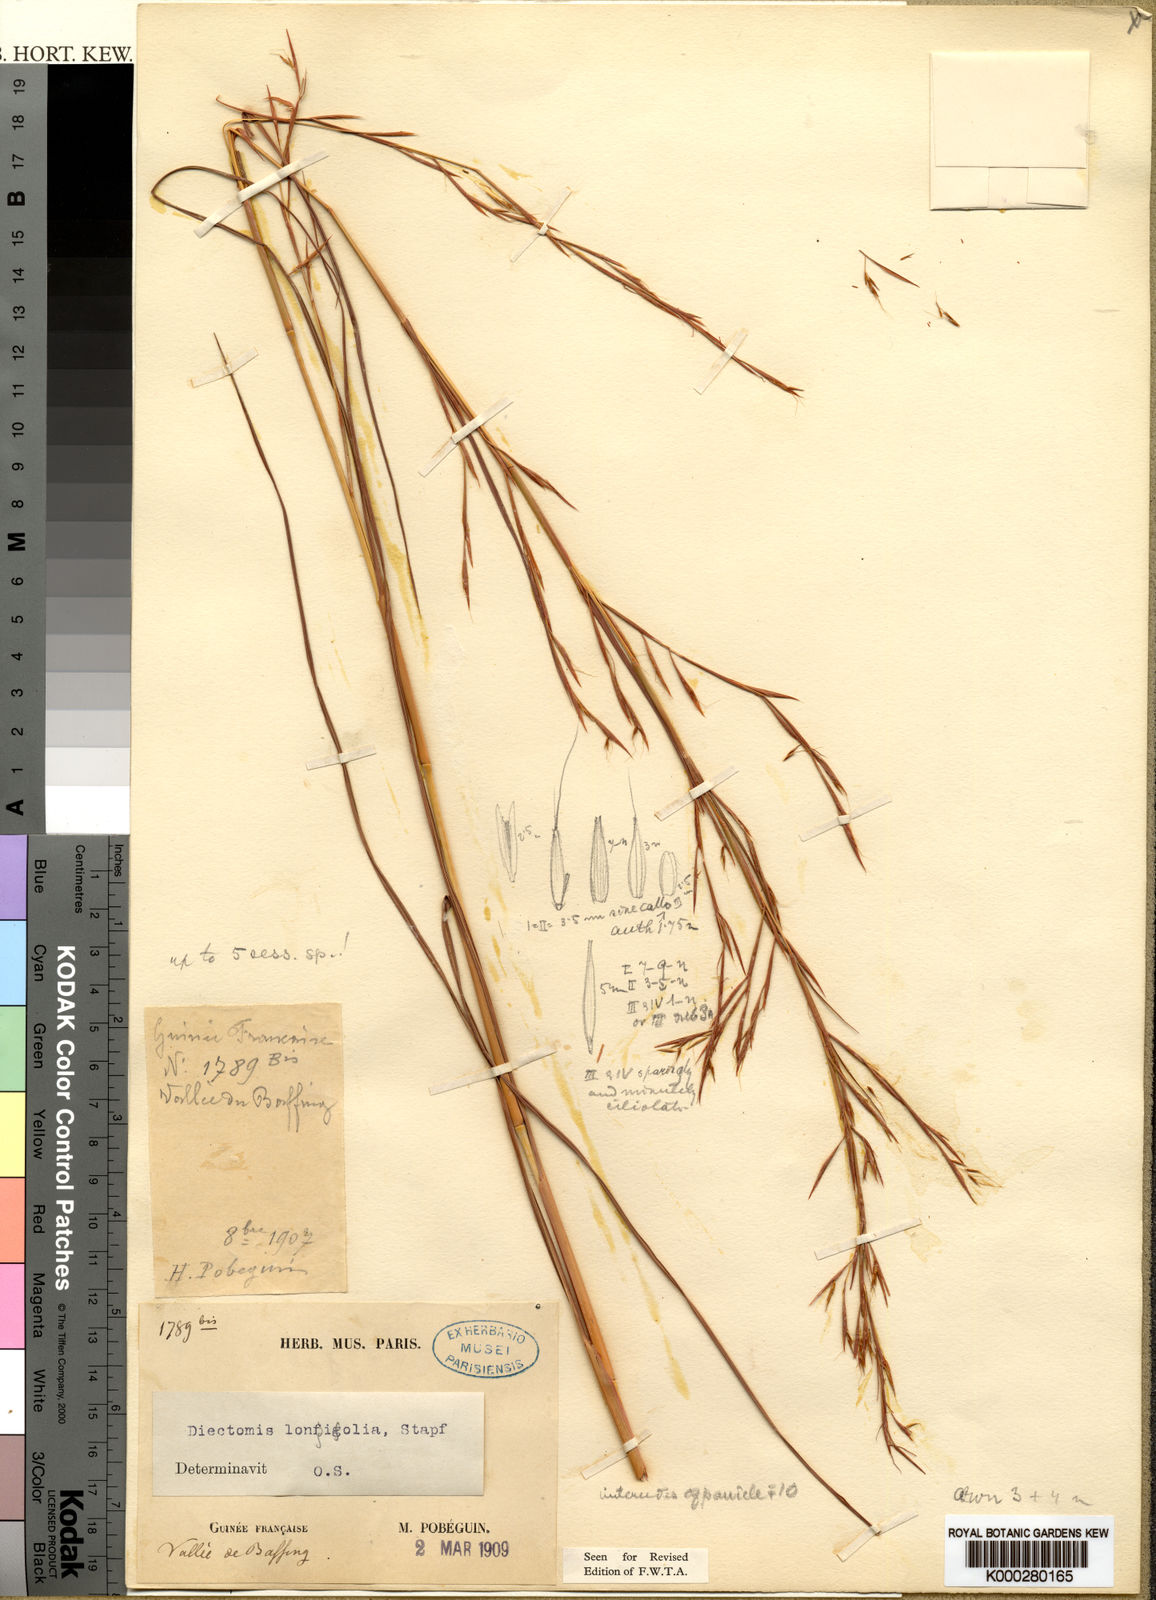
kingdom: Plantae
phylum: Tracheophyta
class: Liliopsida
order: Poales
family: Poaceae
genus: Anadelphia
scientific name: Anadelphia leptocoma
